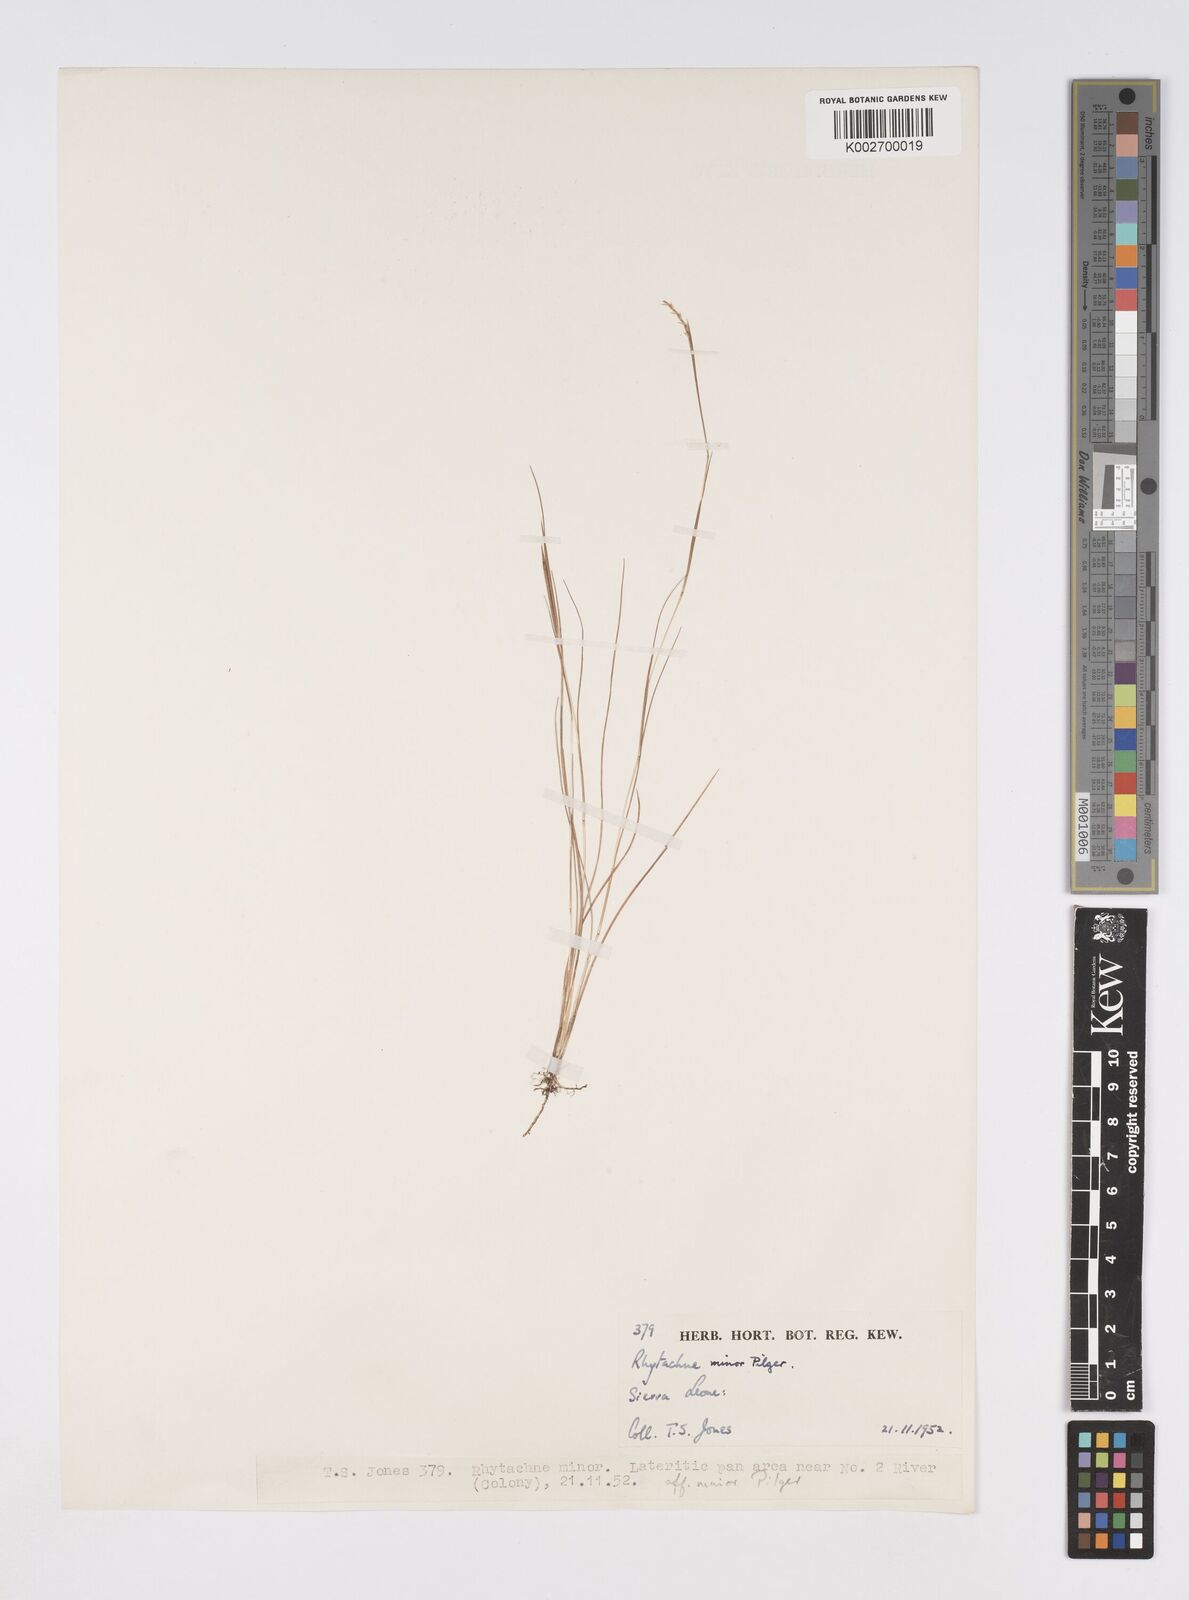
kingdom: Plantae
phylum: Tracheophyta
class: Liliopsida
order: Poales
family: Poaceae
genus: Rhytachne
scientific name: Rhytachne gracilis
